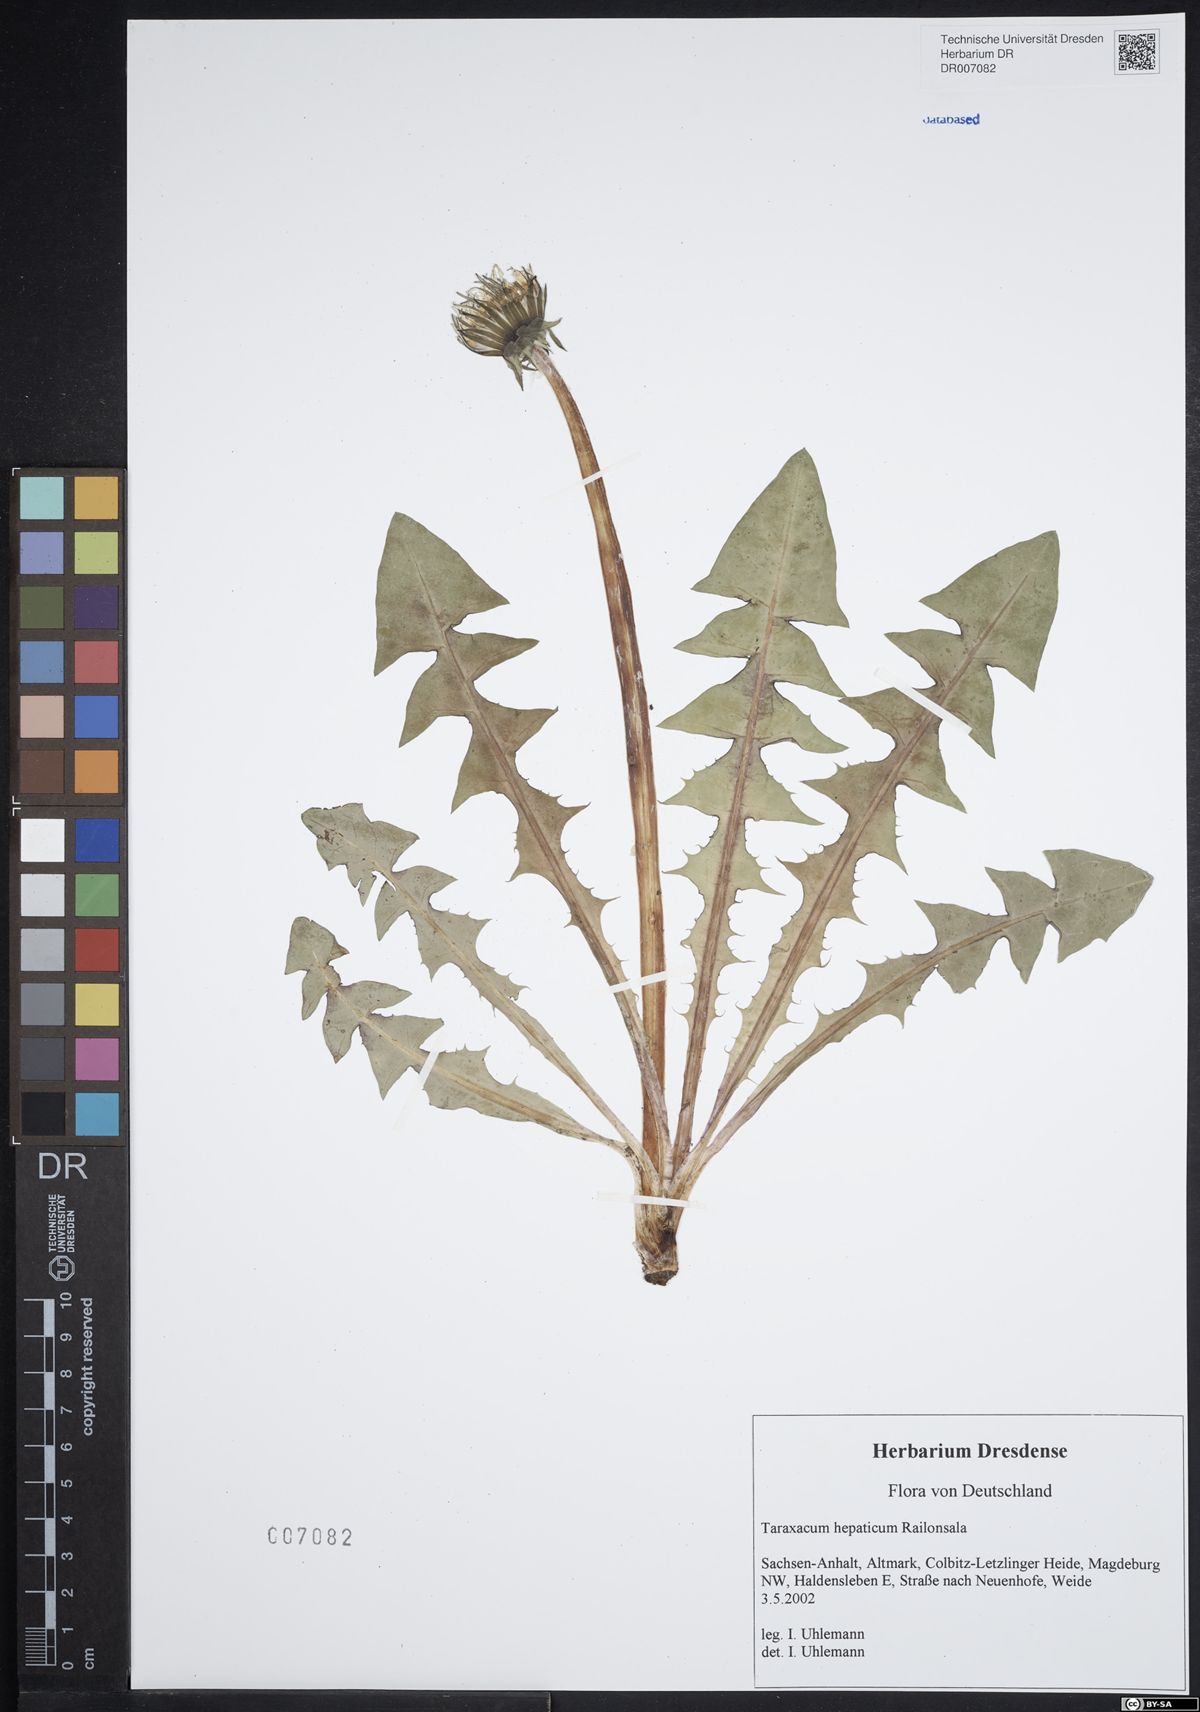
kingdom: Plantae
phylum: Tracheophyta
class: Magnoliopsida
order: Asterales
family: Asteraceae
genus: Taraxacum
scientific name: Taraxacum hepaticum
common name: Regular-lobed dandelion
